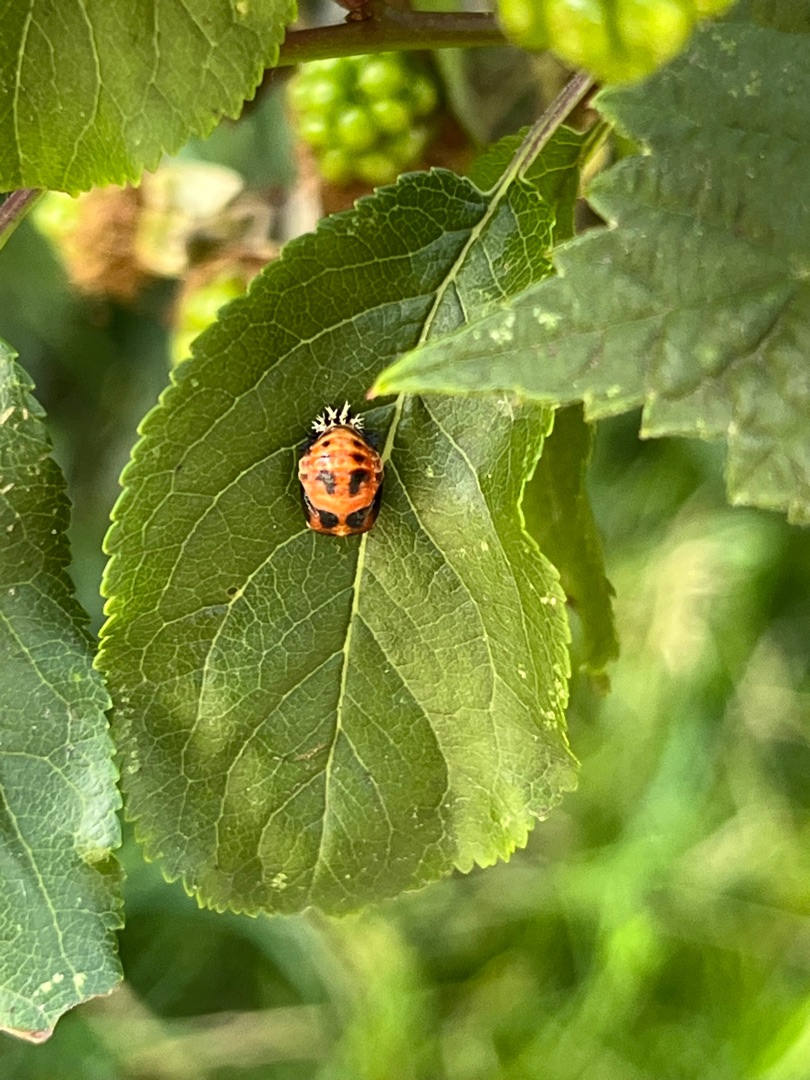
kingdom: Animalia
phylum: Arthropoda
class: Insecta
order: Coleoptera
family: Coccinellidae
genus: Harmonia
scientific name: Harmonia axyridis
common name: Harlekinmariehøne
